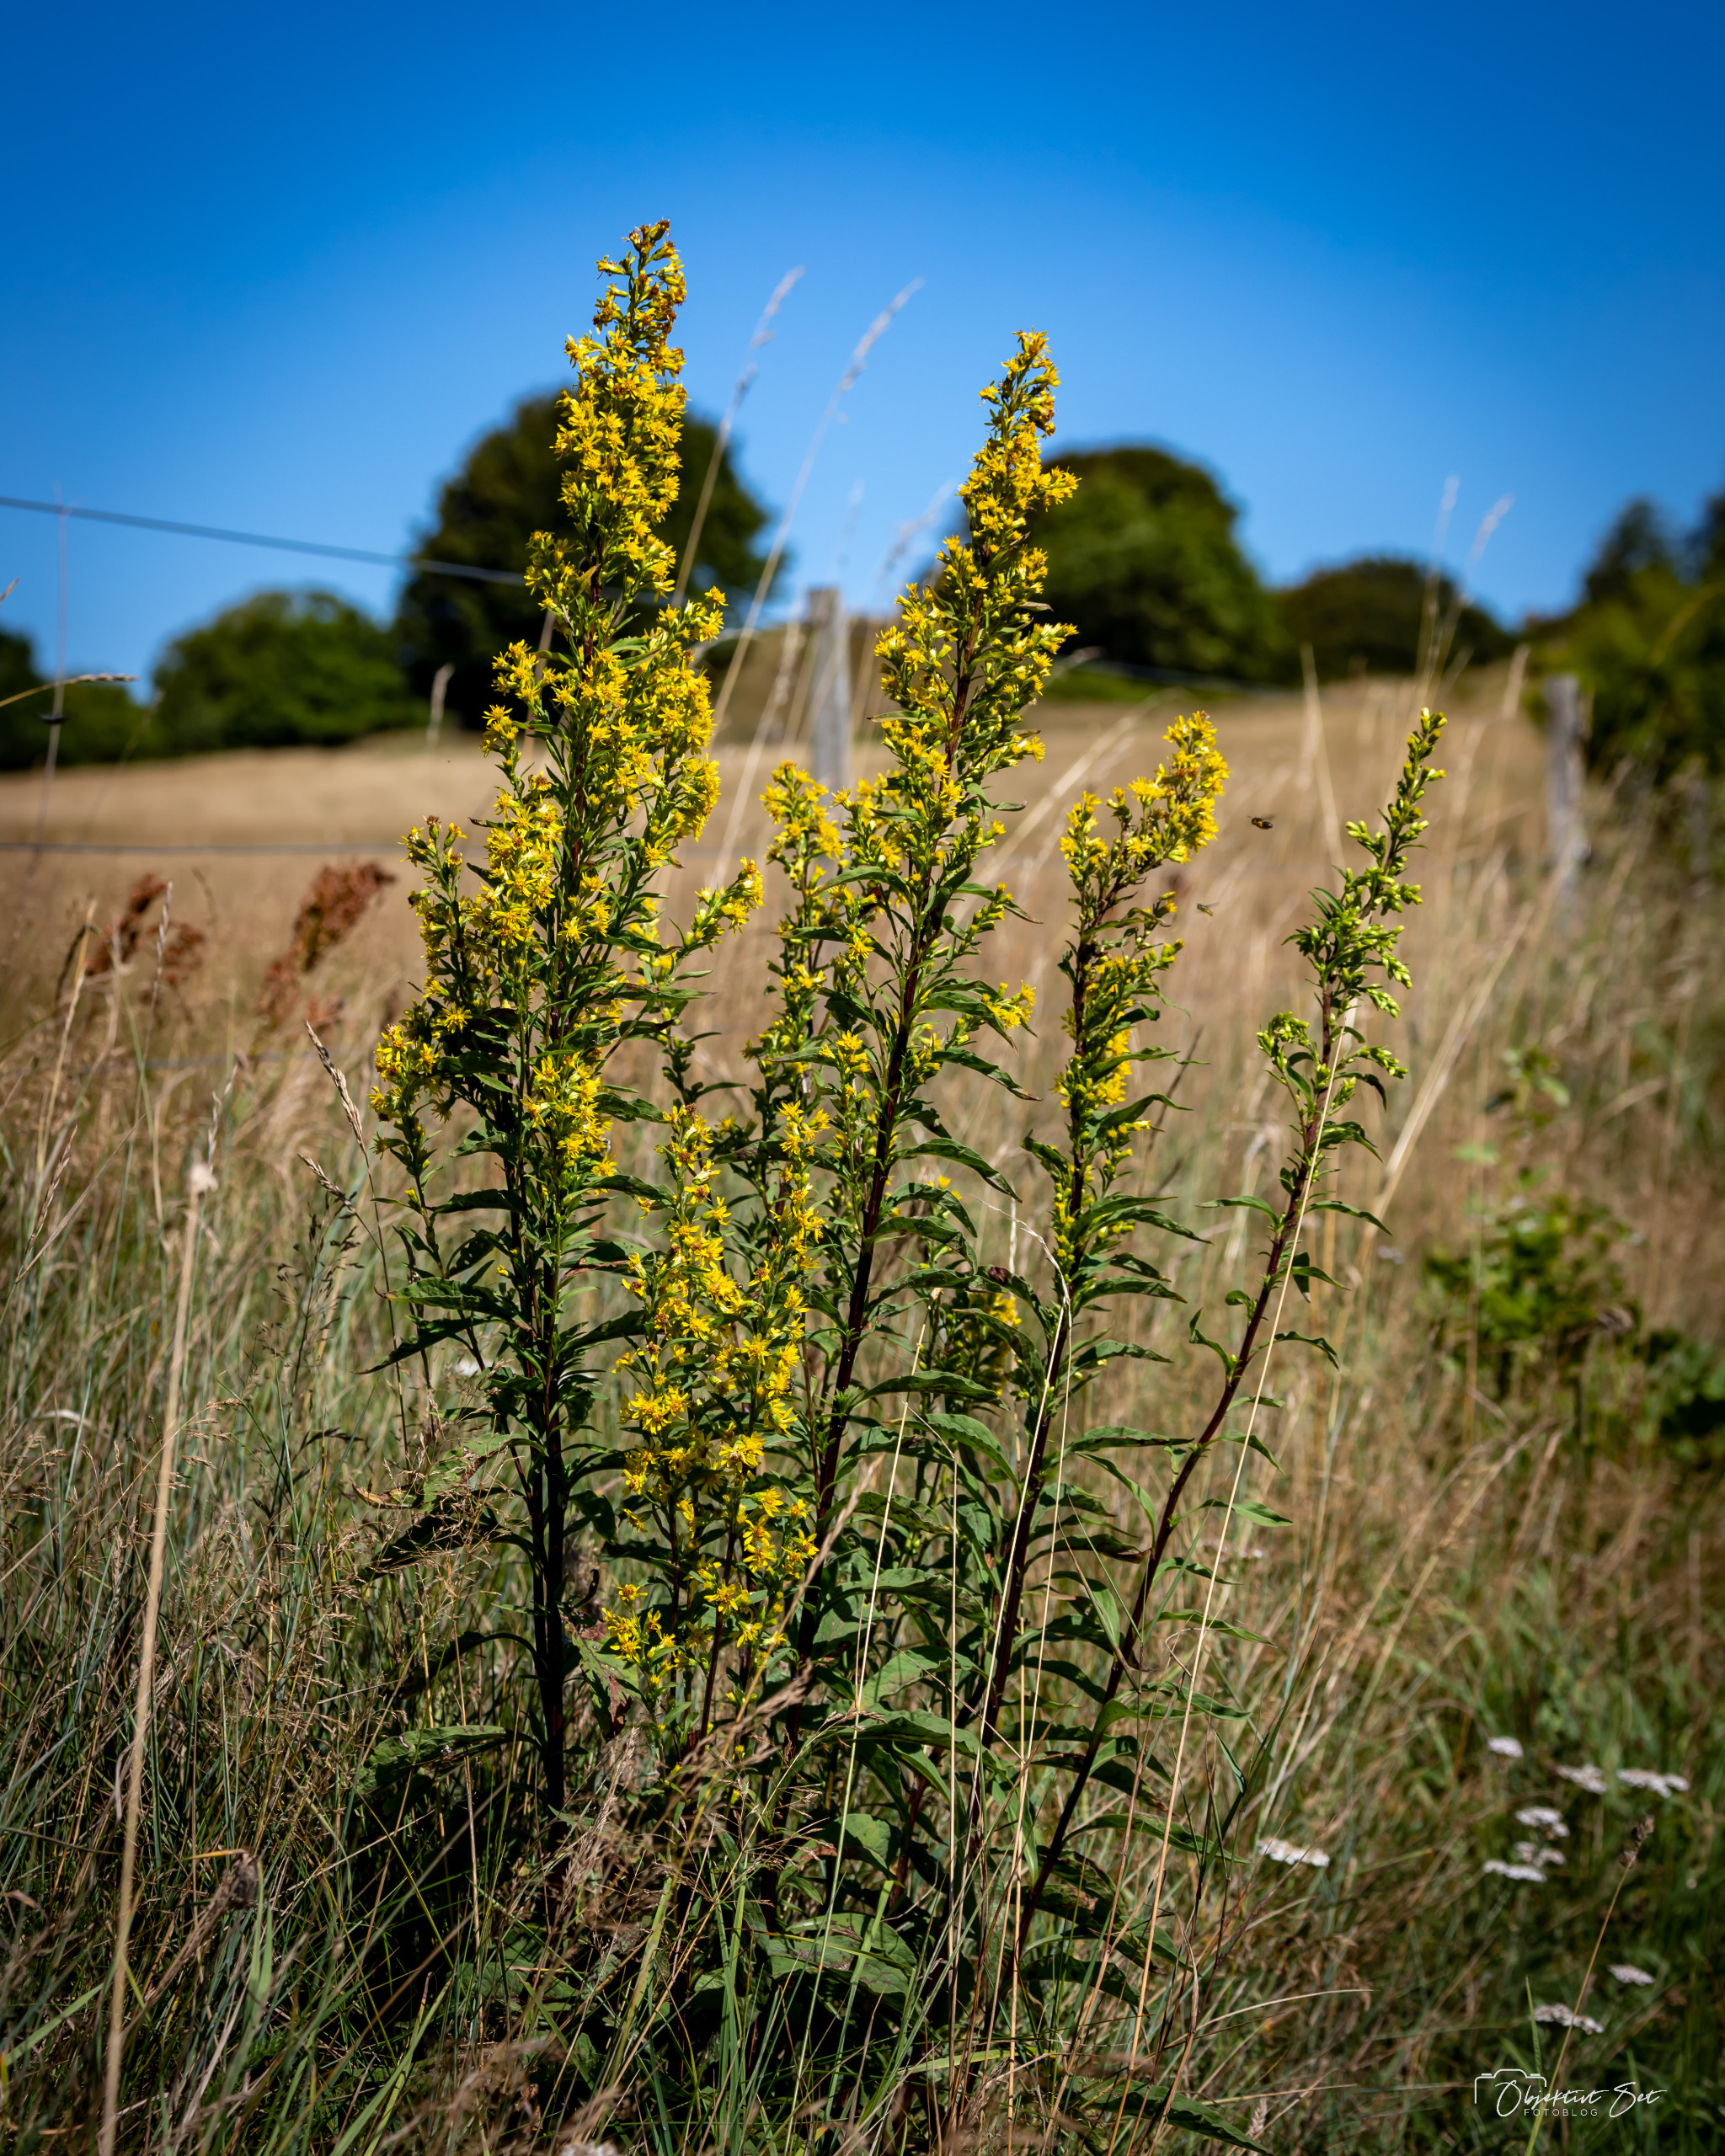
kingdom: Plantae
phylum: Tracheophyta
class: Magnoliopsida
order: Asterales
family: Asteraceae
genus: Solidago
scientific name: Solidago virgaurea
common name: Almindelig gyldenris
